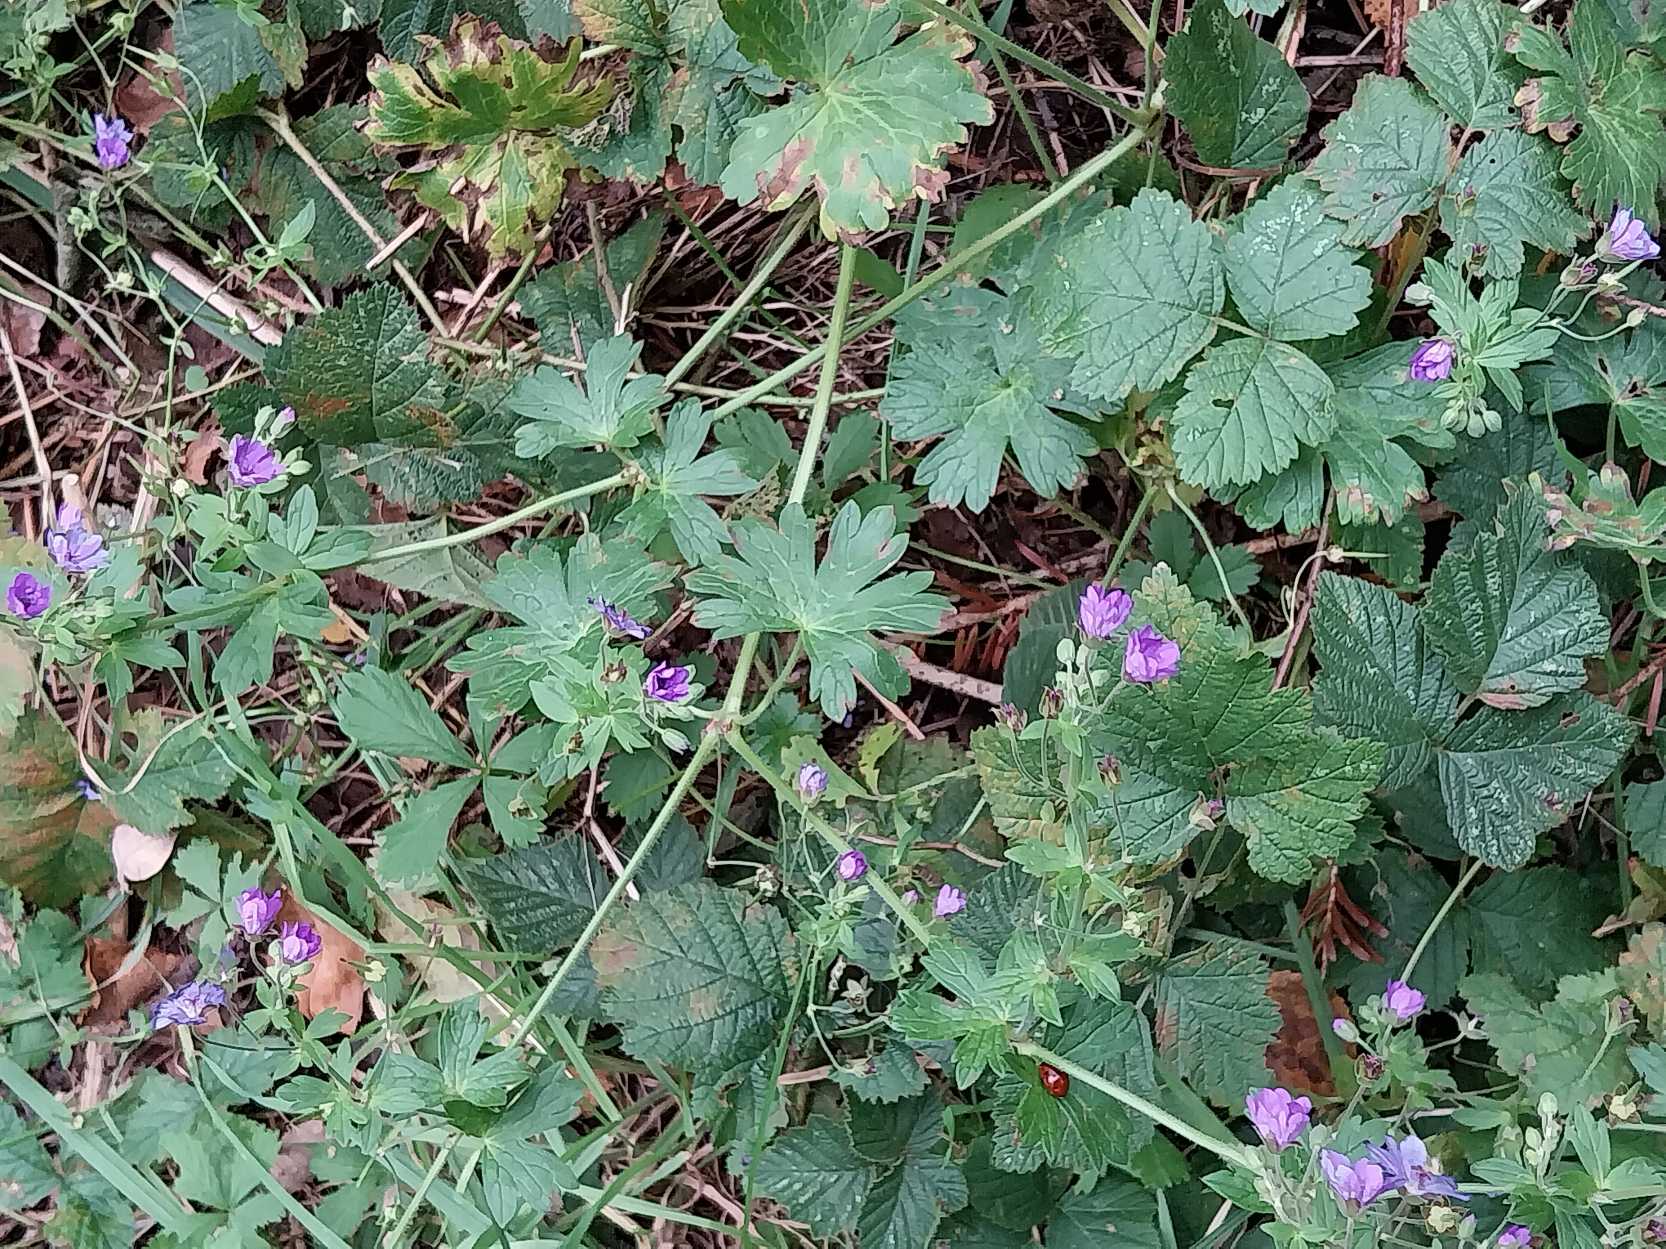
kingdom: Plantae
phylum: Tracheophyta
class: Magnoliopsida
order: Geraniales
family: Geraniaceae
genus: Geranium
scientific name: Geranium pyrenaicum
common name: Pyrenæisk storkenæb
